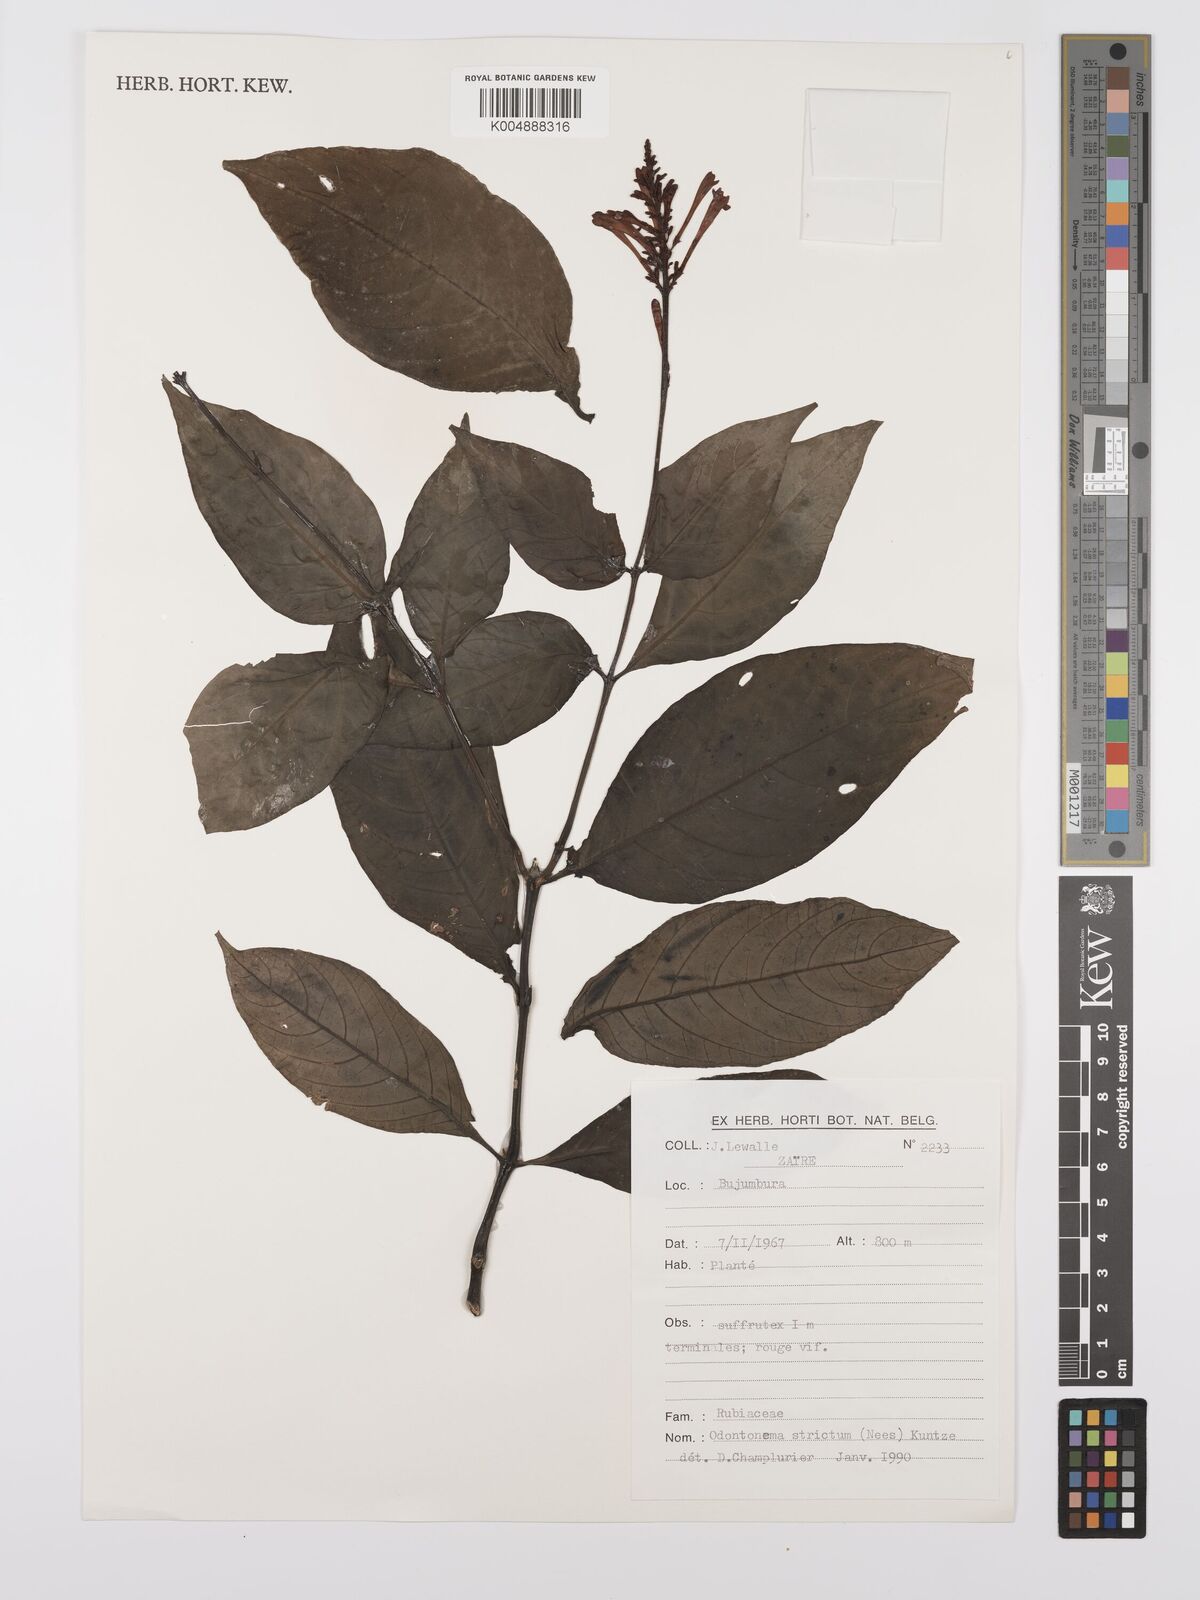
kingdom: Plantae
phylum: Tracheophyta
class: Magnoliopsida
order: Lamiales
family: Acanthaceae
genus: Odontonema
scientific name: Odontonema cuspidatum
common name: Mottled toothedthread
